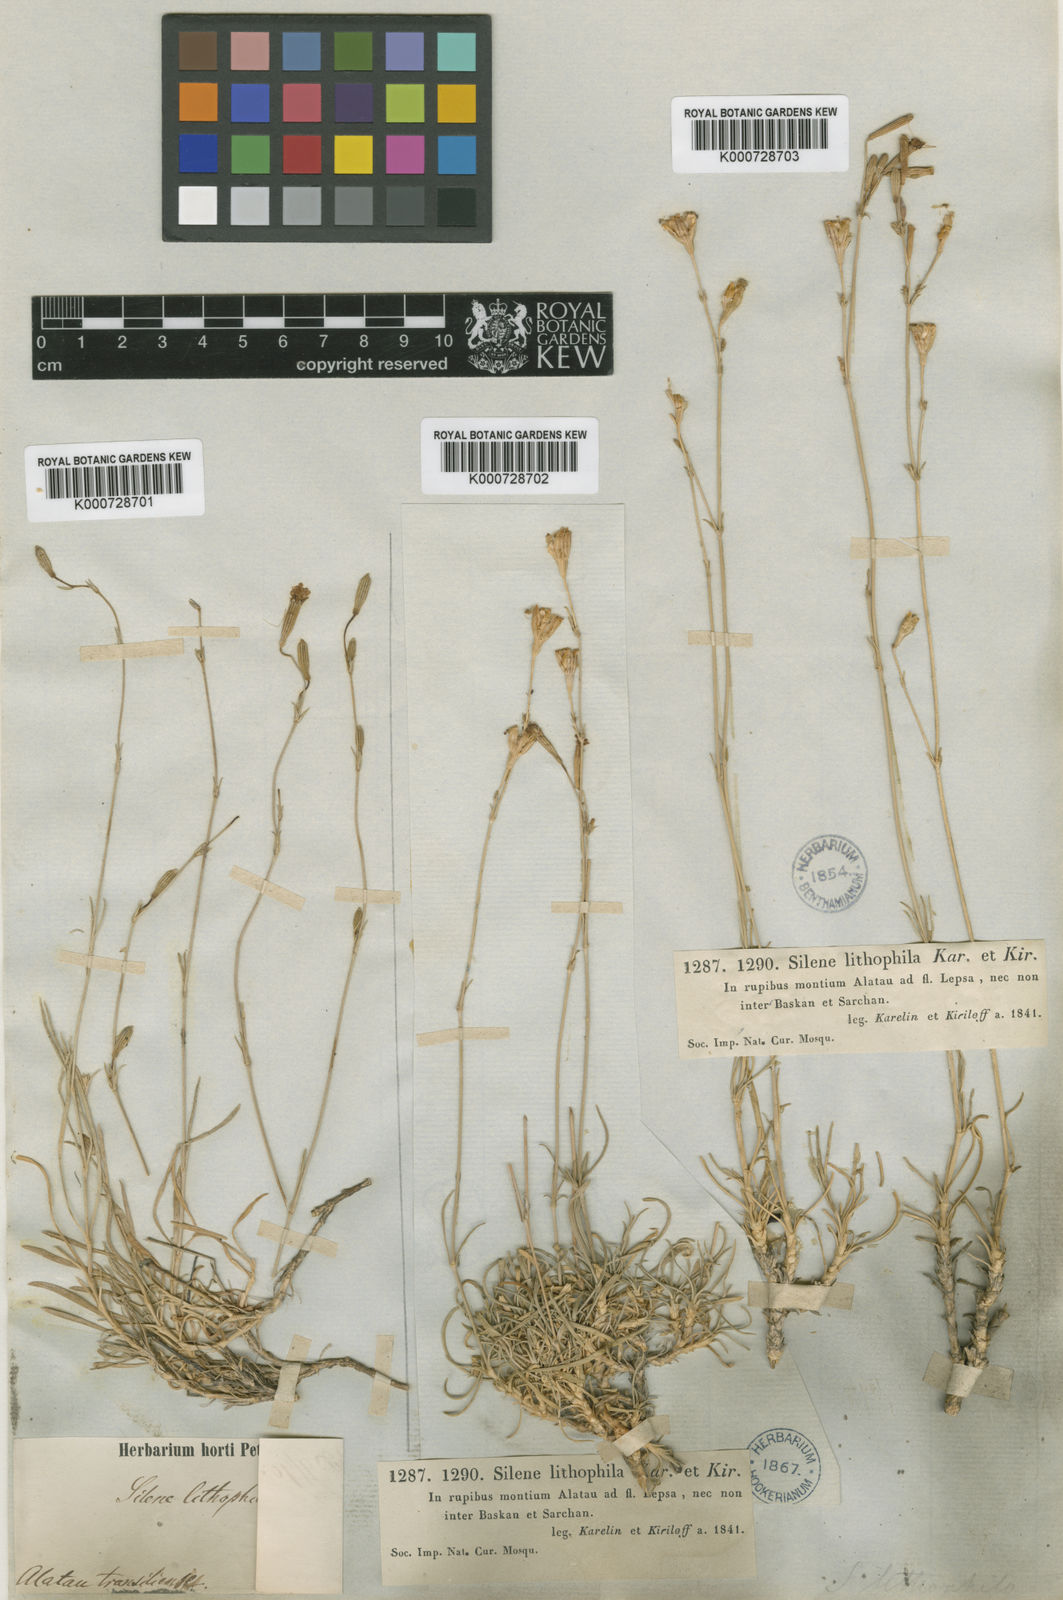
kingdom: Plantae
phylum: Tracheophyta
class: Magnoliopsida
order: Caryophyllales
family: Caryophyllaceae
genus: Silene
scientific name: Silene lithophila
